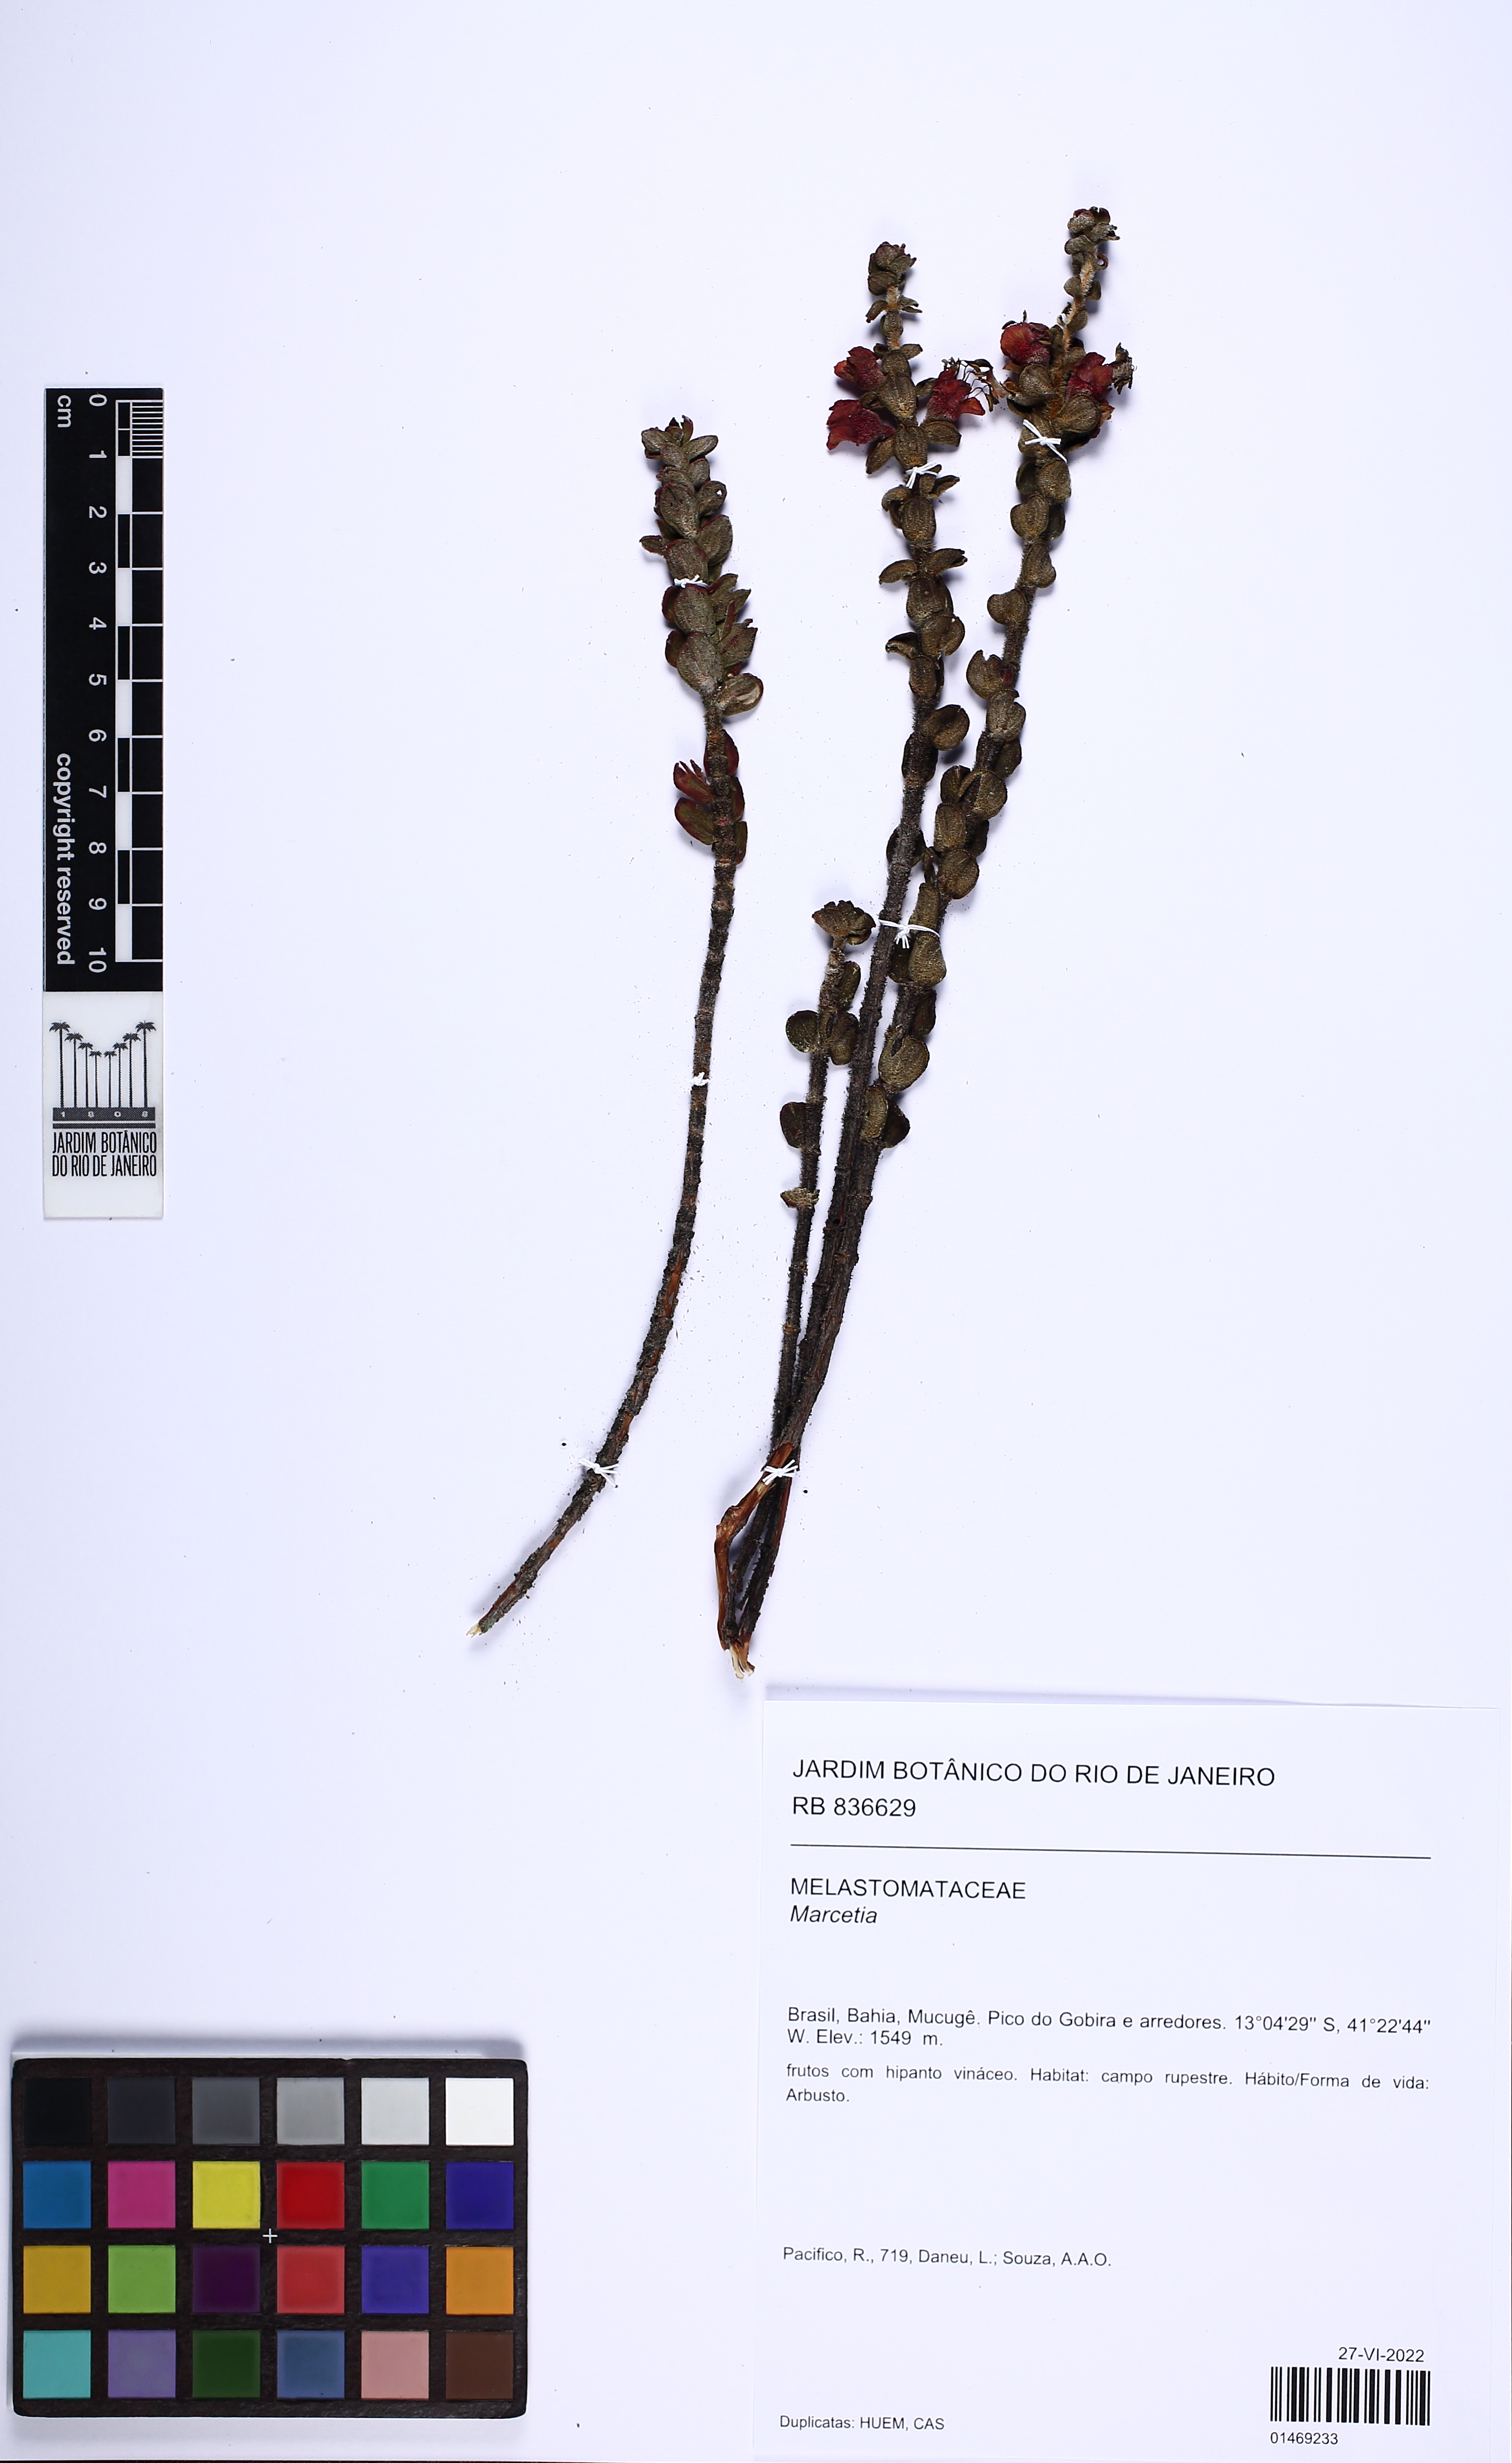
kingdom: Plantae
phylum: Tracheophyta
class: Magnoliopsida
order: Myrtales
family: Melastomataceae
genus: Marcetia
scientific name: Marcetia
